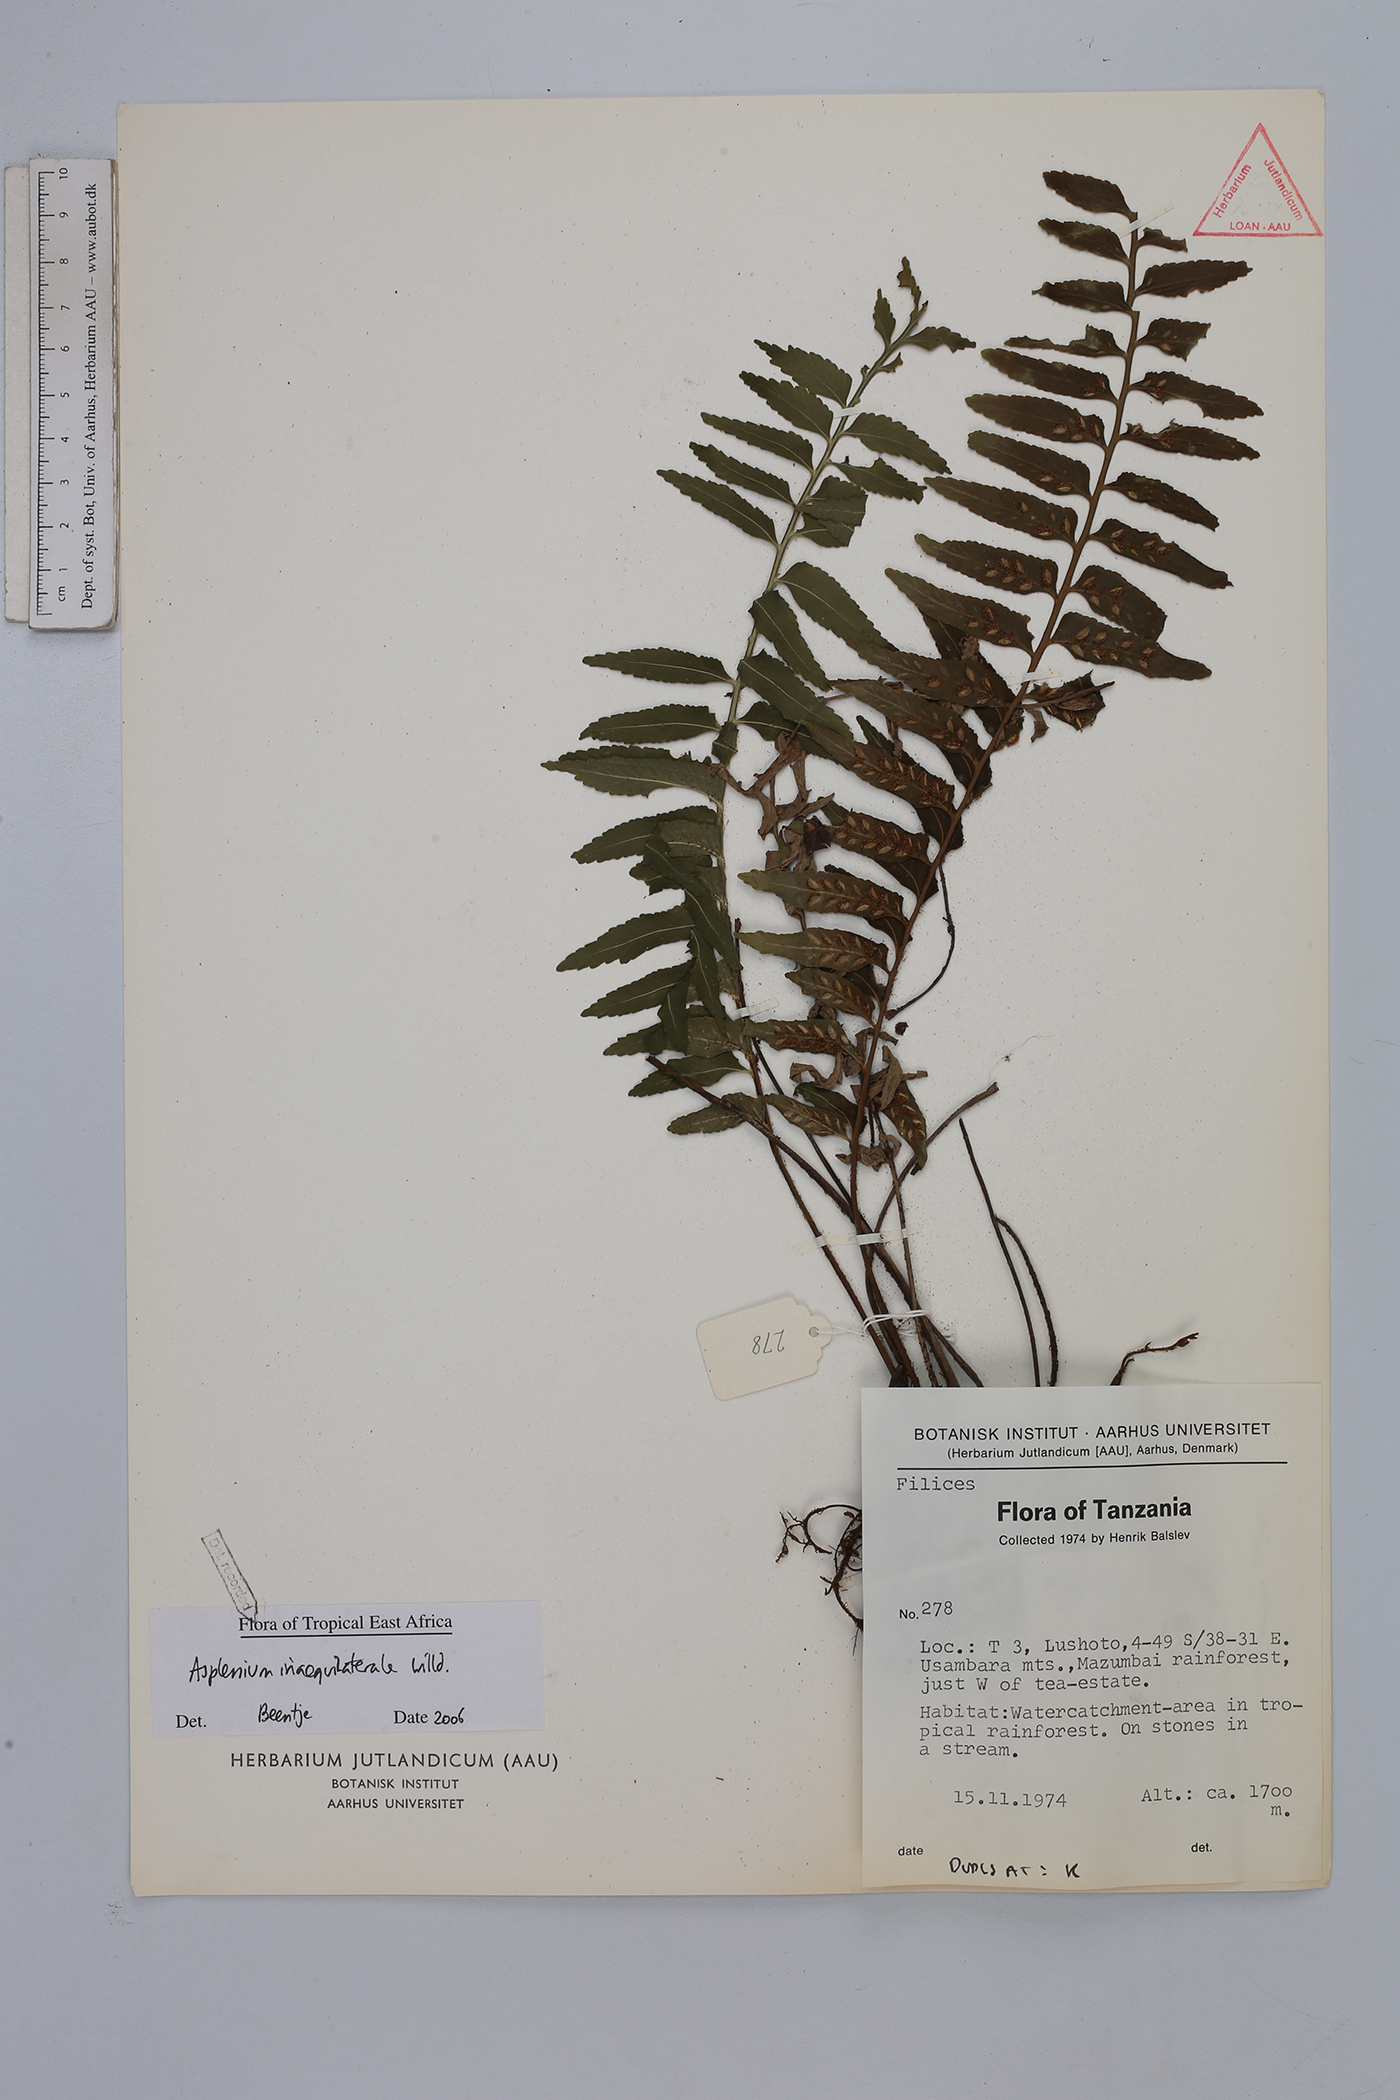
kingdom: Plantae
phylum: Tracheophyta
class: Polypodiopsida
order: Polypodiales
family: Aspleniaceae
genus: Asplenium
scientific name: Asplenium inaequilaterale
